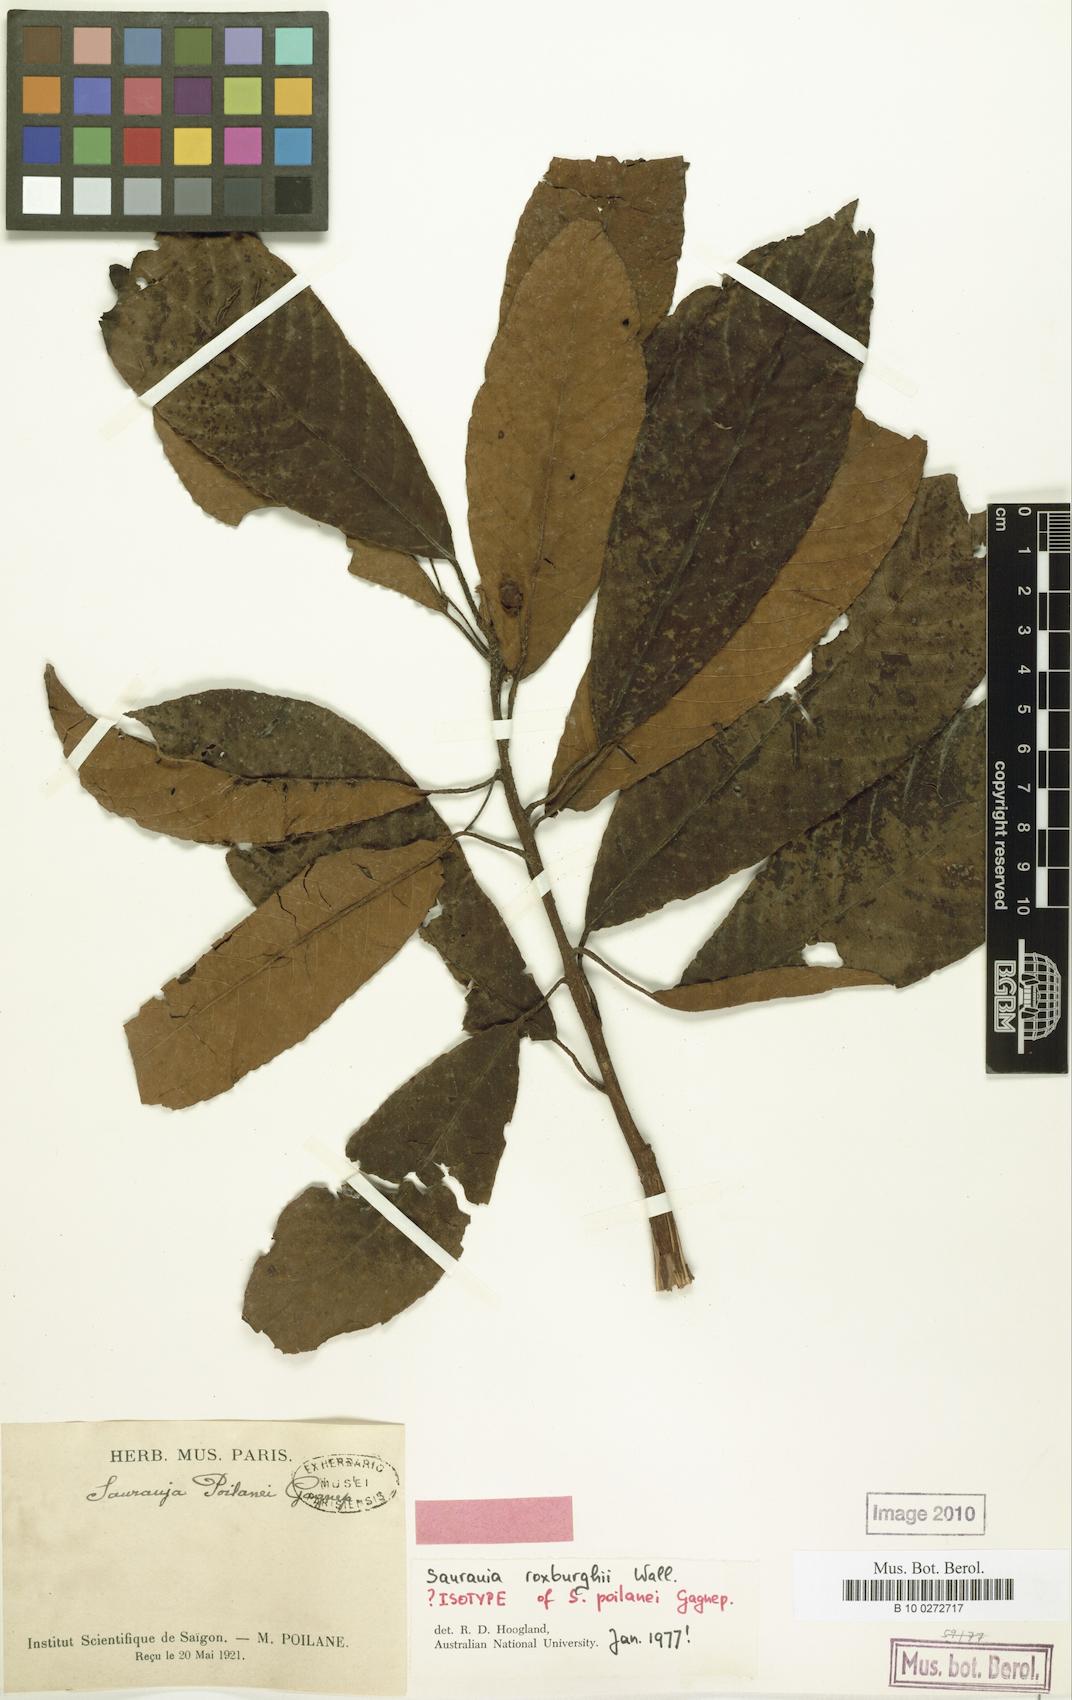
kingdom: Plantae
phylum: Tracheophyta
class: Magnoliopsida
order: Ericales
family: Actinidiaceae
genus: Saurauia
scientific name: Saurauia roxburghii
